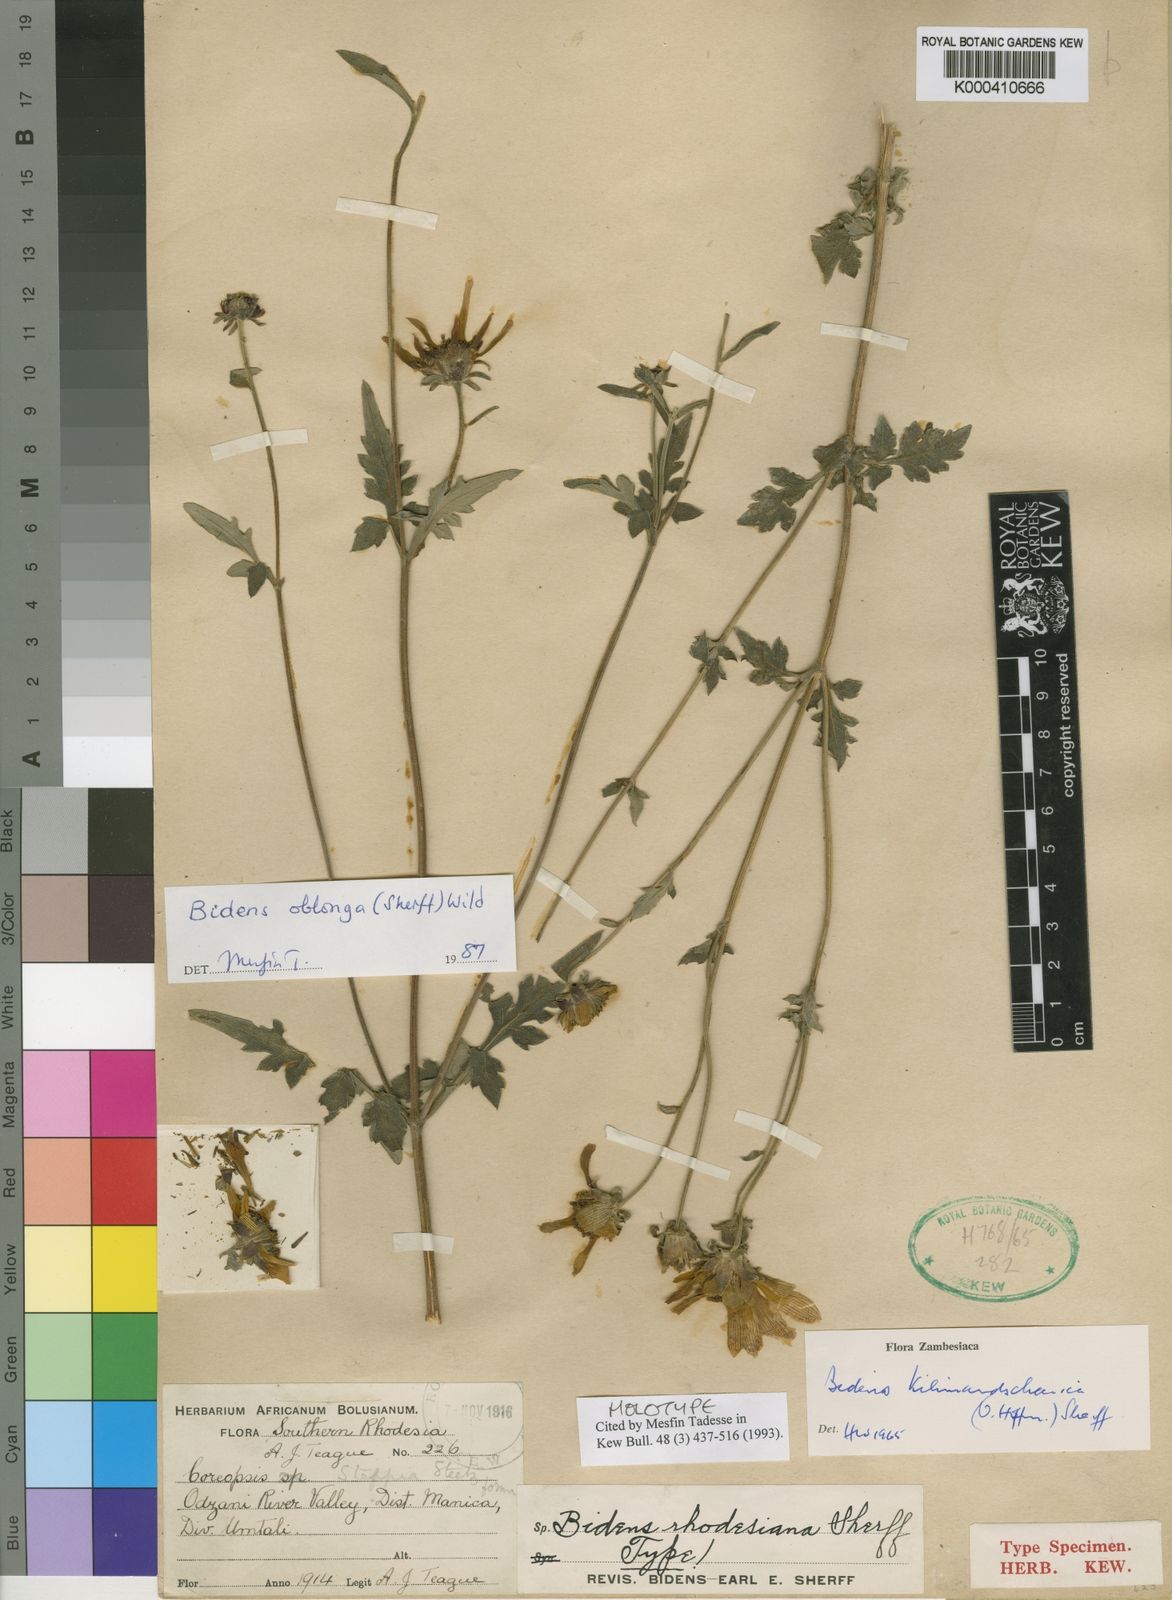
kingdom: Plantae
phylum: Tracheophyta
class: Magnoliopsida
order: Asterales
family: Asteraceae
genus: Bidens
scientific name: Bidens oblonga
